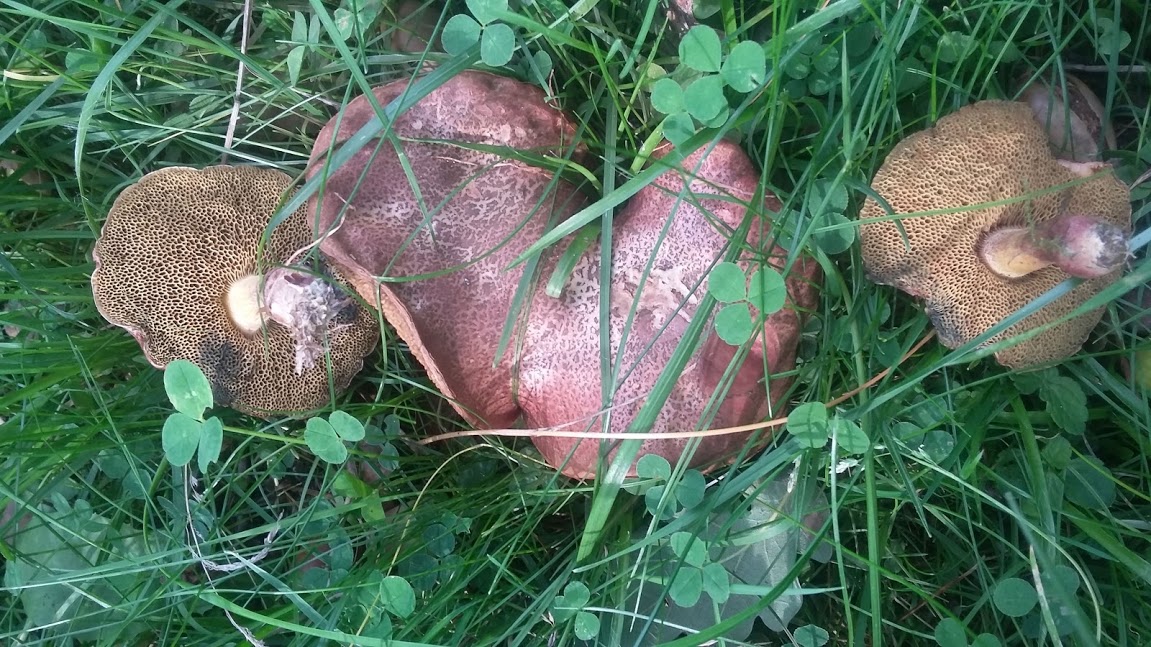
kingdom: Fungi
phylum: Basidiomycota
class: Agaricomycetes
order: Boletales
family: Boletaceae
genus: Xerocomellus
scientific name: Xerocomellus chrysenteron
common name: rødsprukken rørhat
